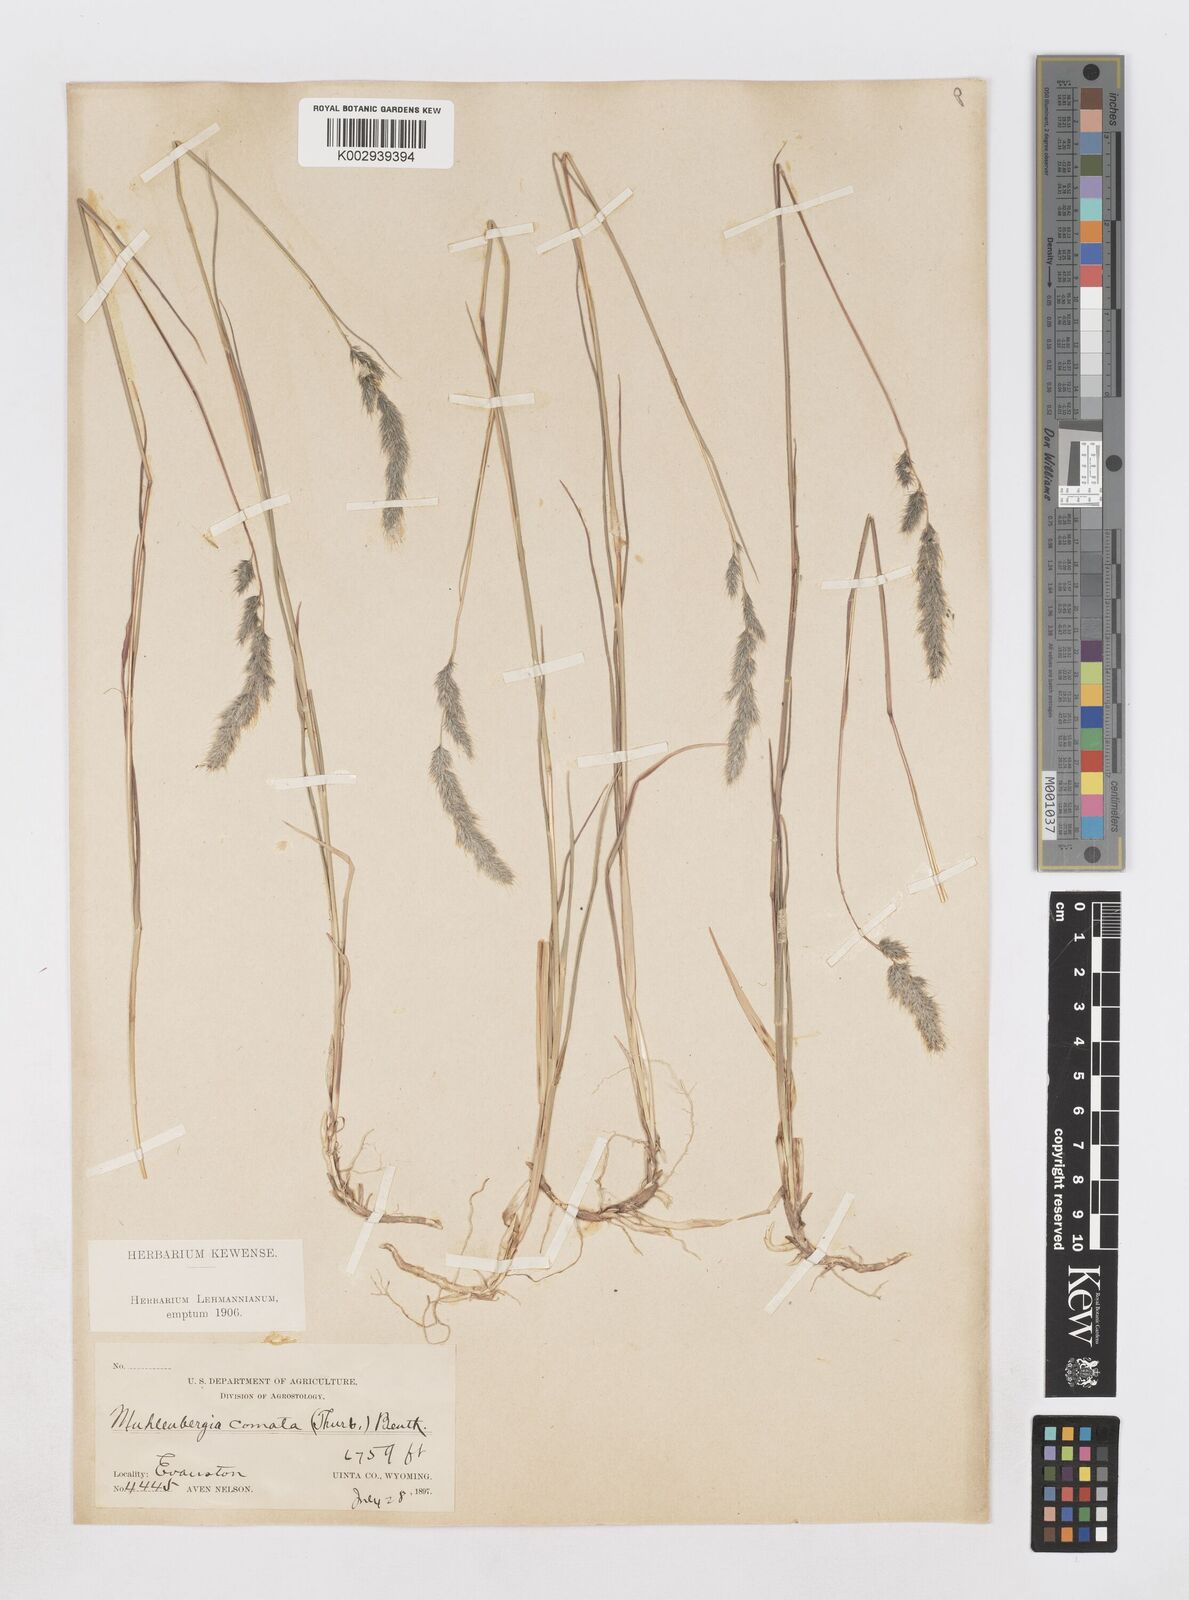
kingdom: Plantae
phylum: Tracheophyta
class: Liliopsida
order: Poales
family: Poaceae
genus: Muhlenbergia
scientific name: Muhlenbergia andina
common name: Foxtail muhly
